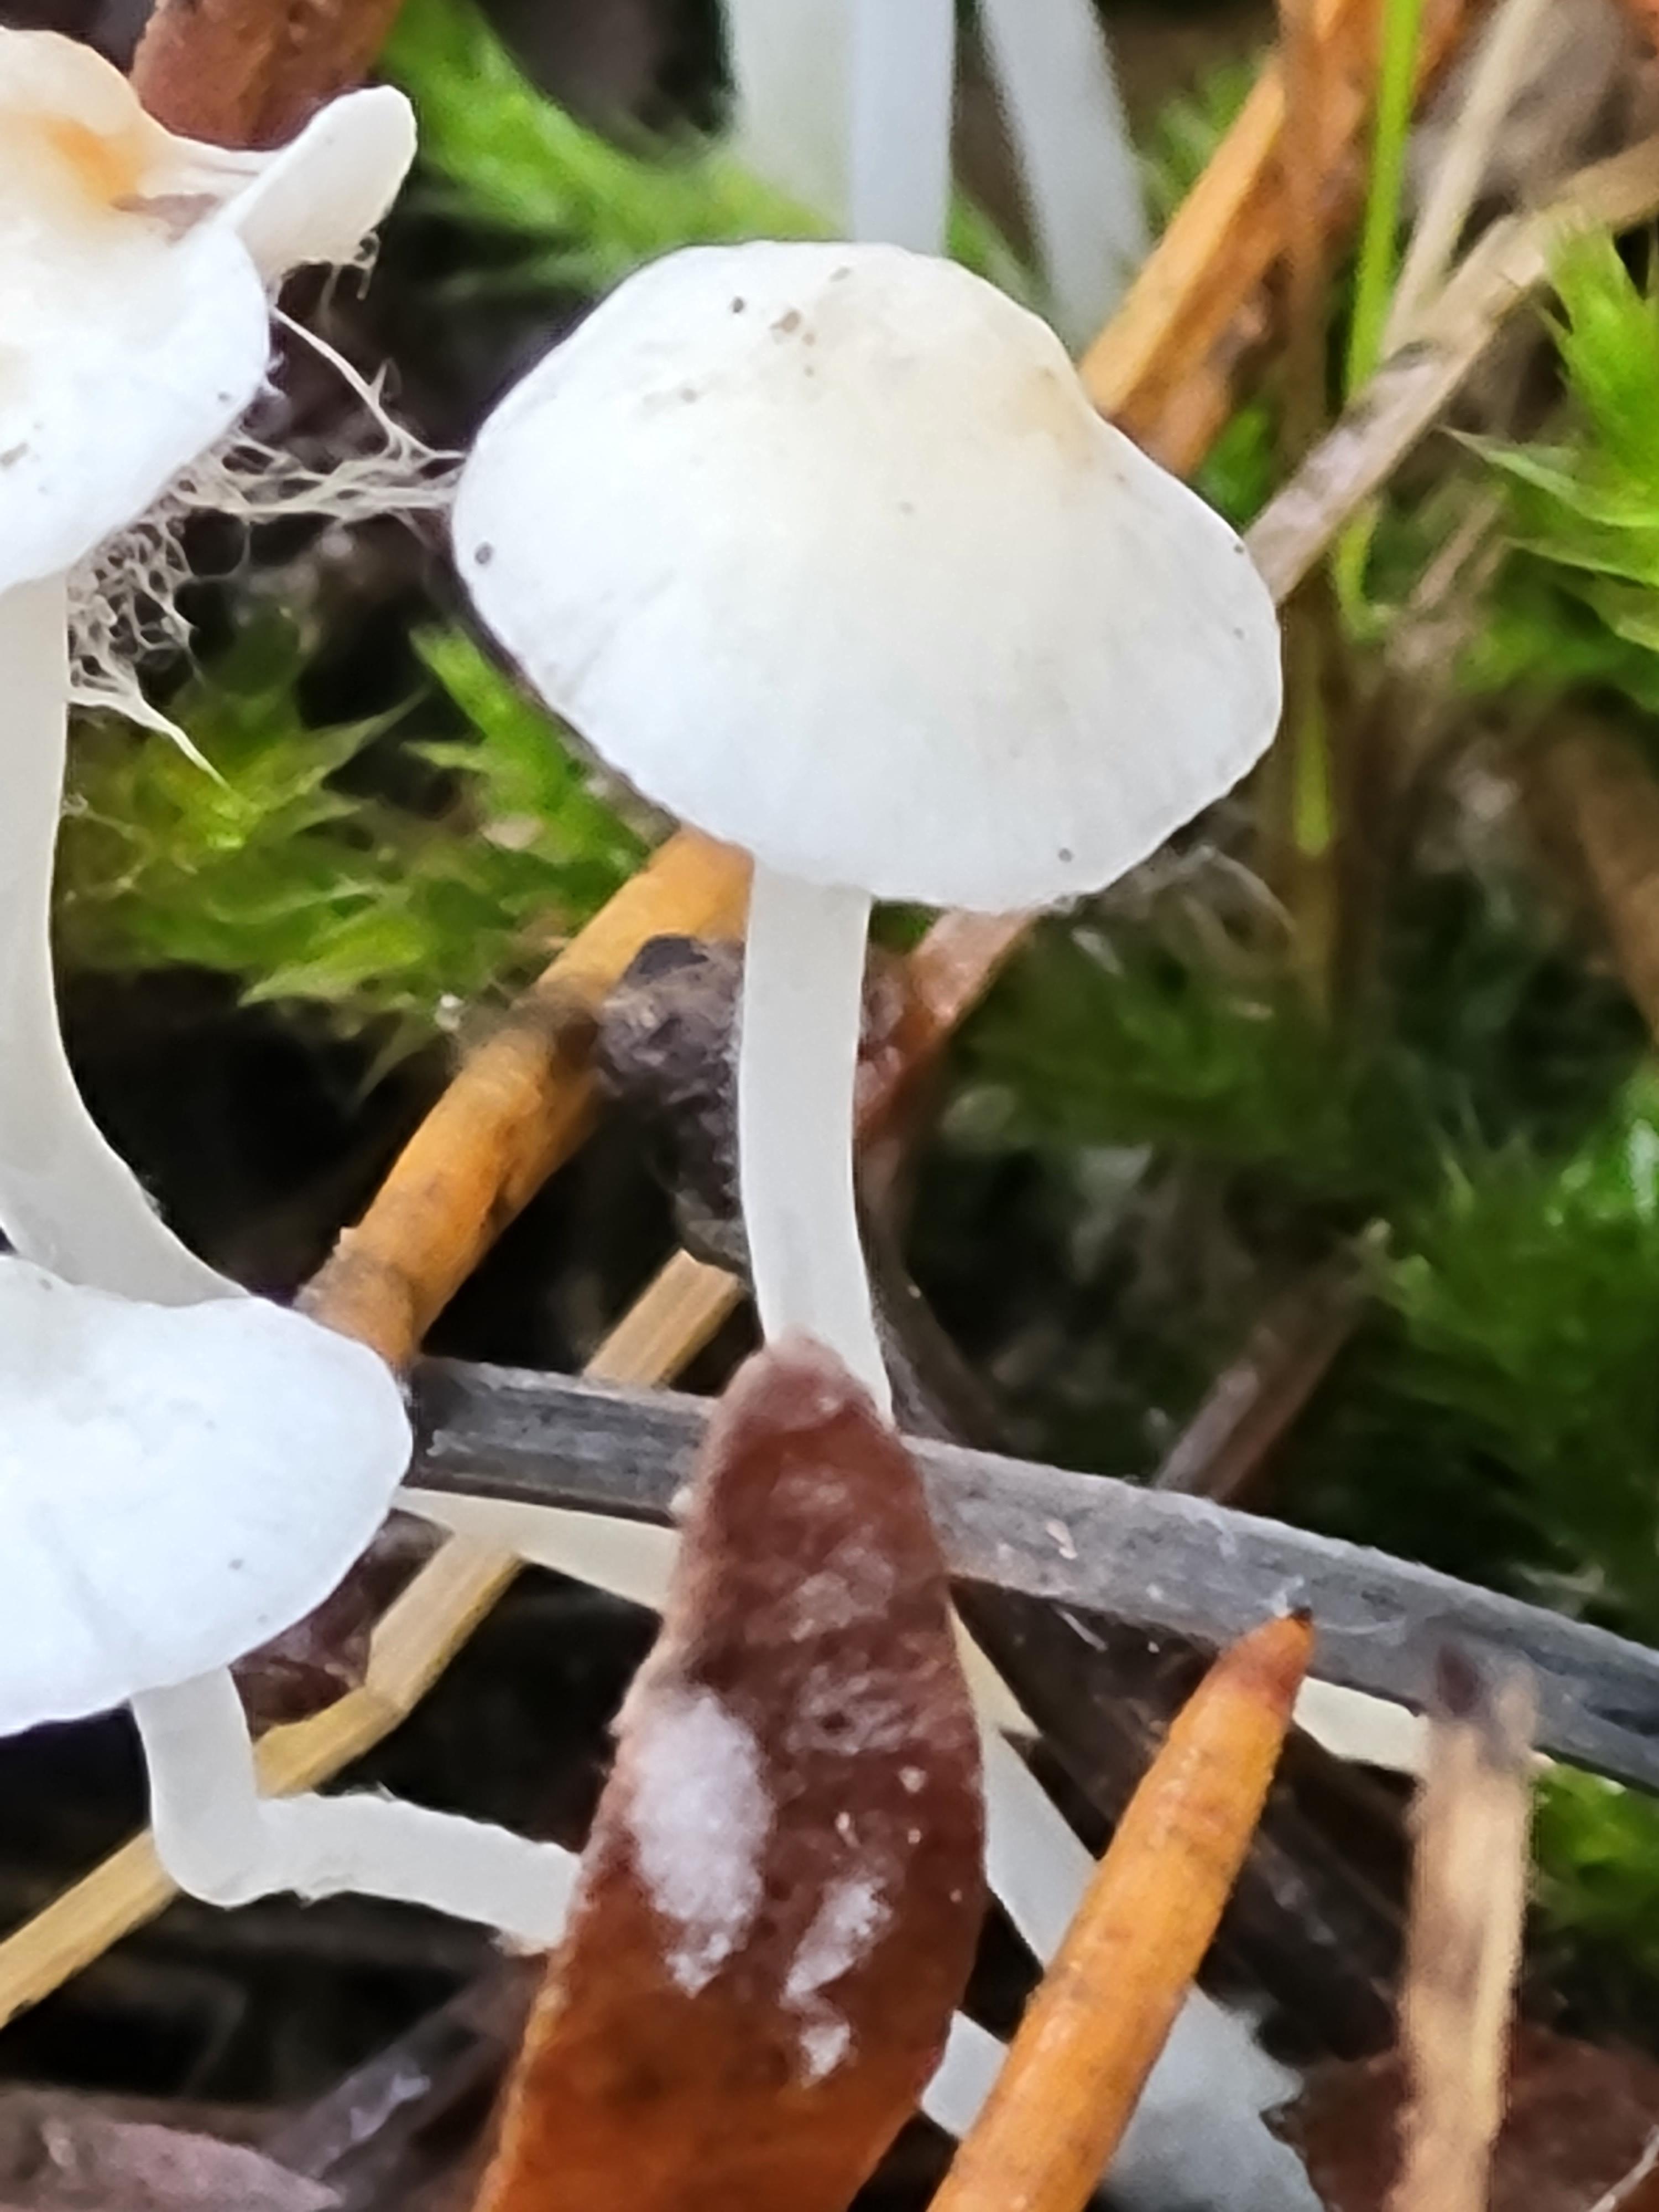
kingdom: Fungi
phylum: Basidiomycota
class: Agaricomycetes
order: Agaricales
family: Mycenaceae
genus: Hemimycena
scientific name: Hemimycena
